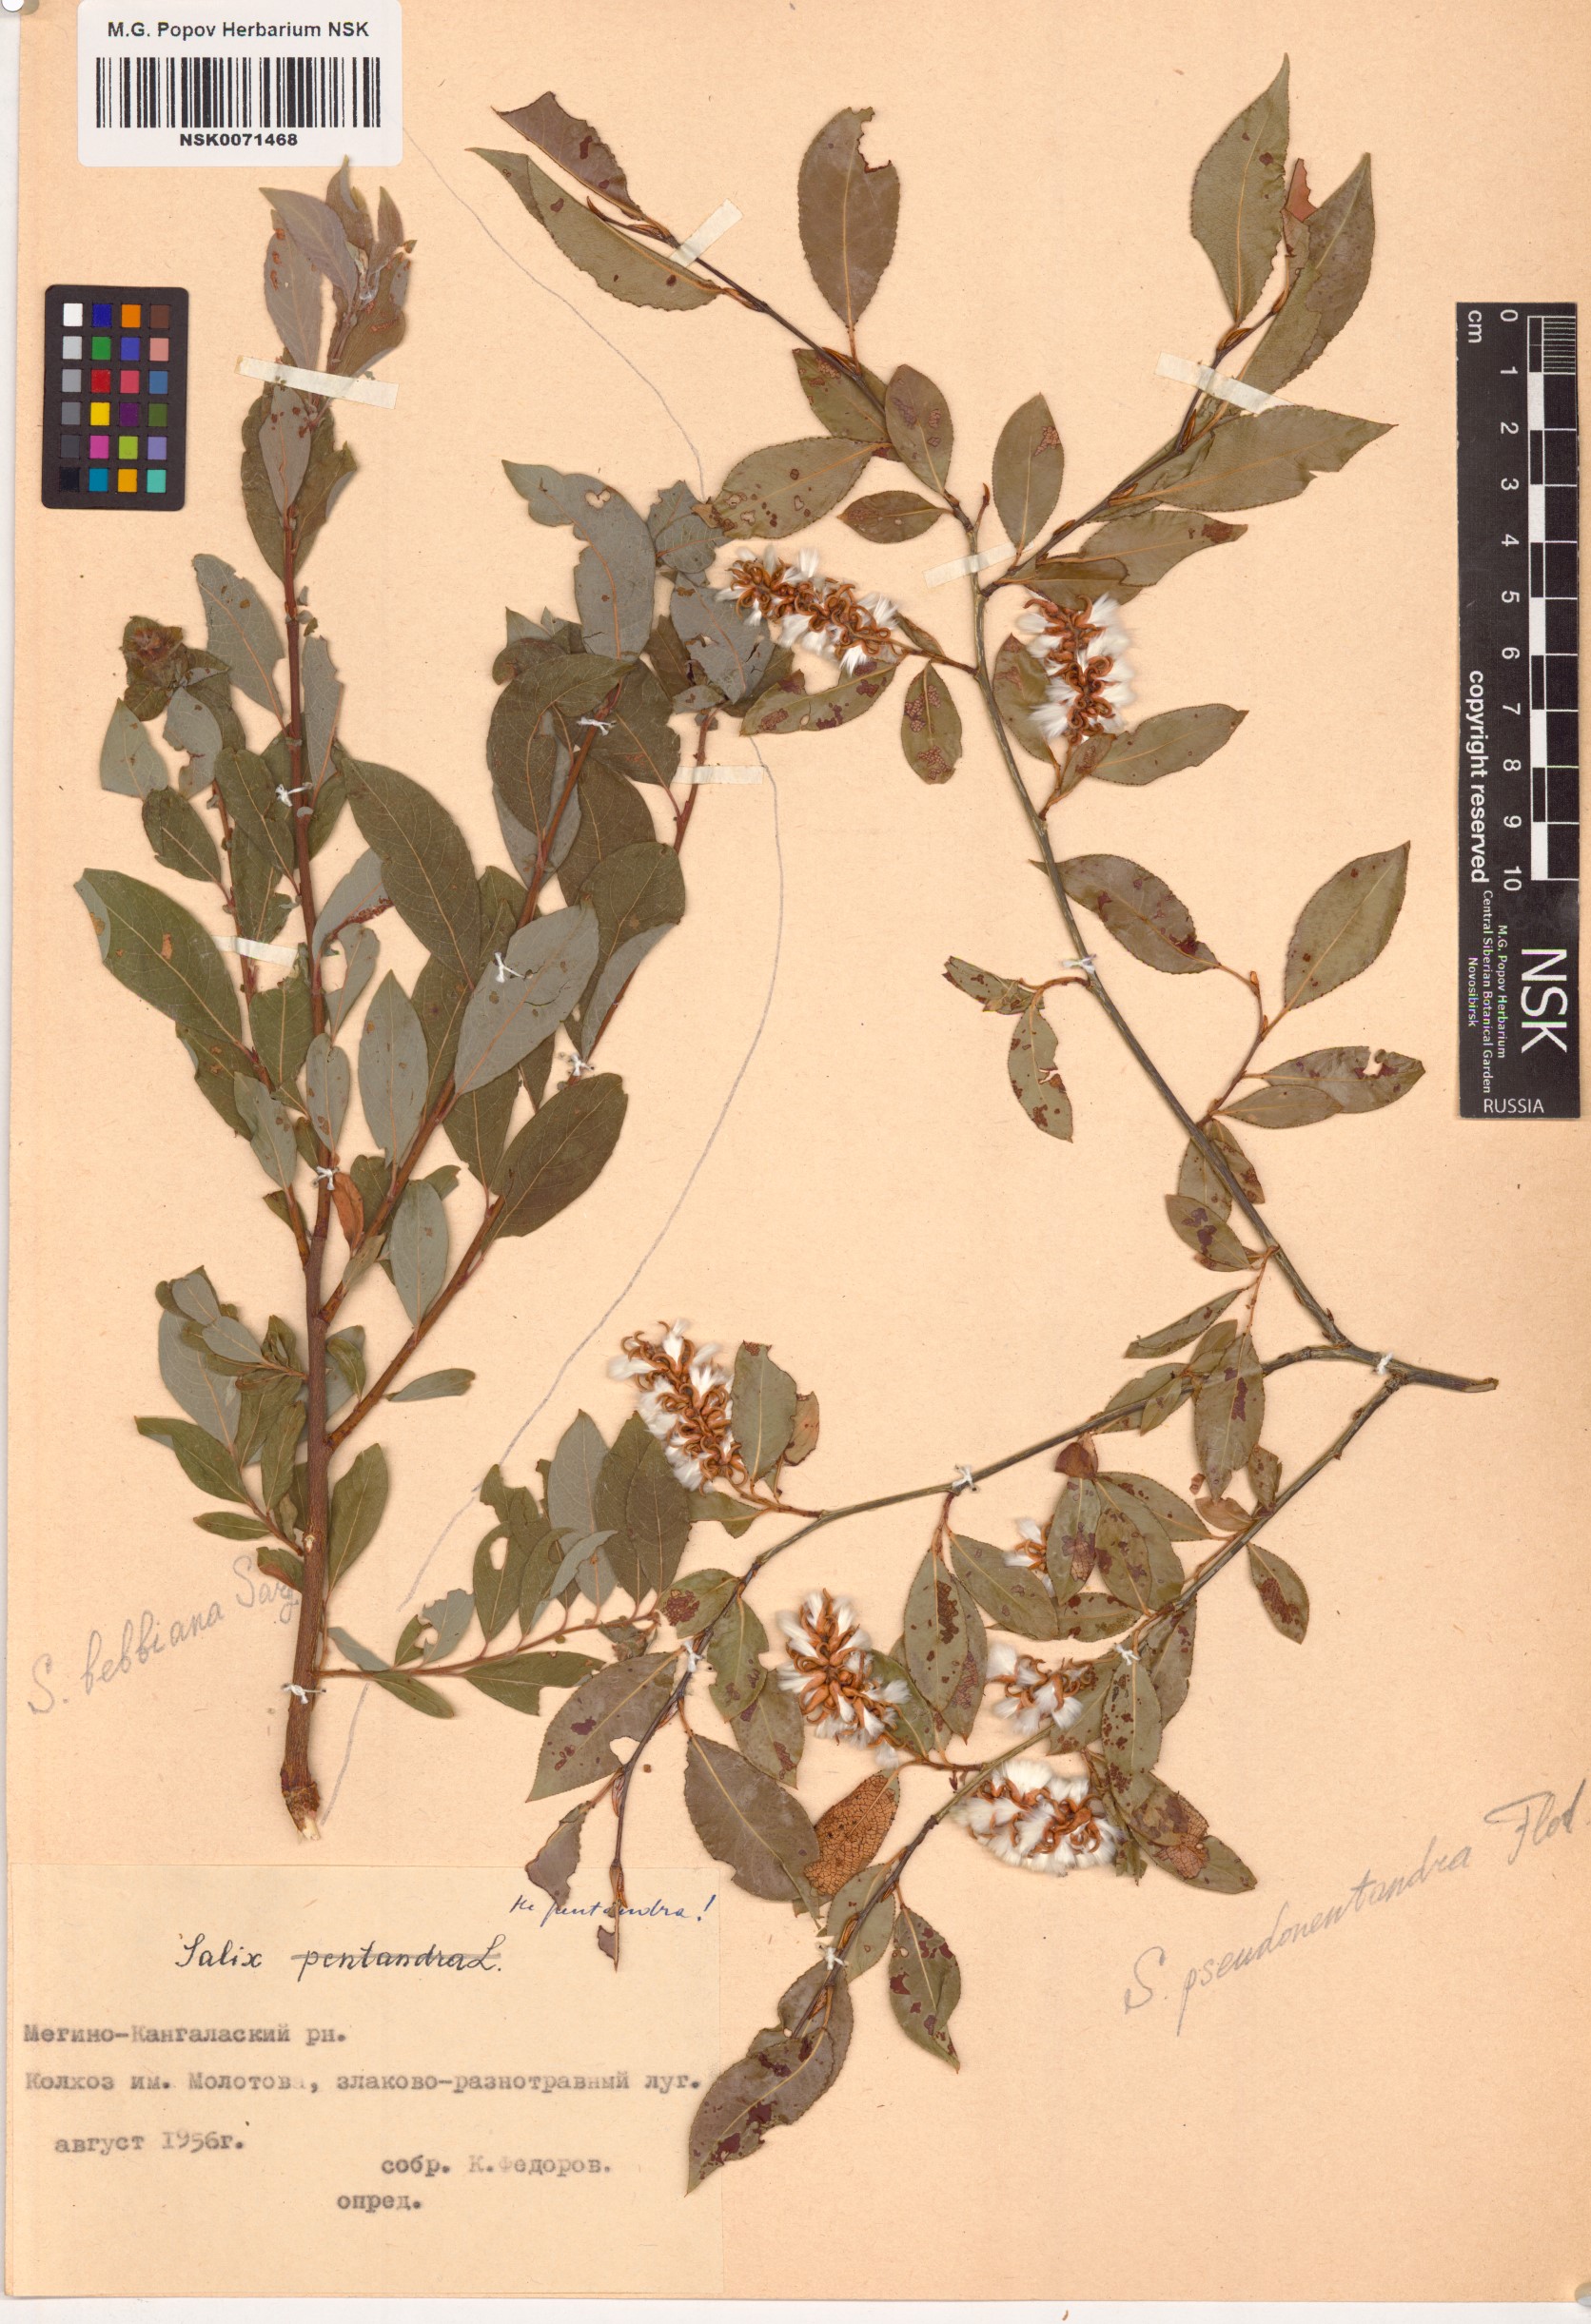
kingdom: Plantae
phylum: Tracheophyta
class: Magnoliopsida
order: Malpighiales
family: Salicaceae
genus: Salix
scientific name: Salix pseudopentandra
